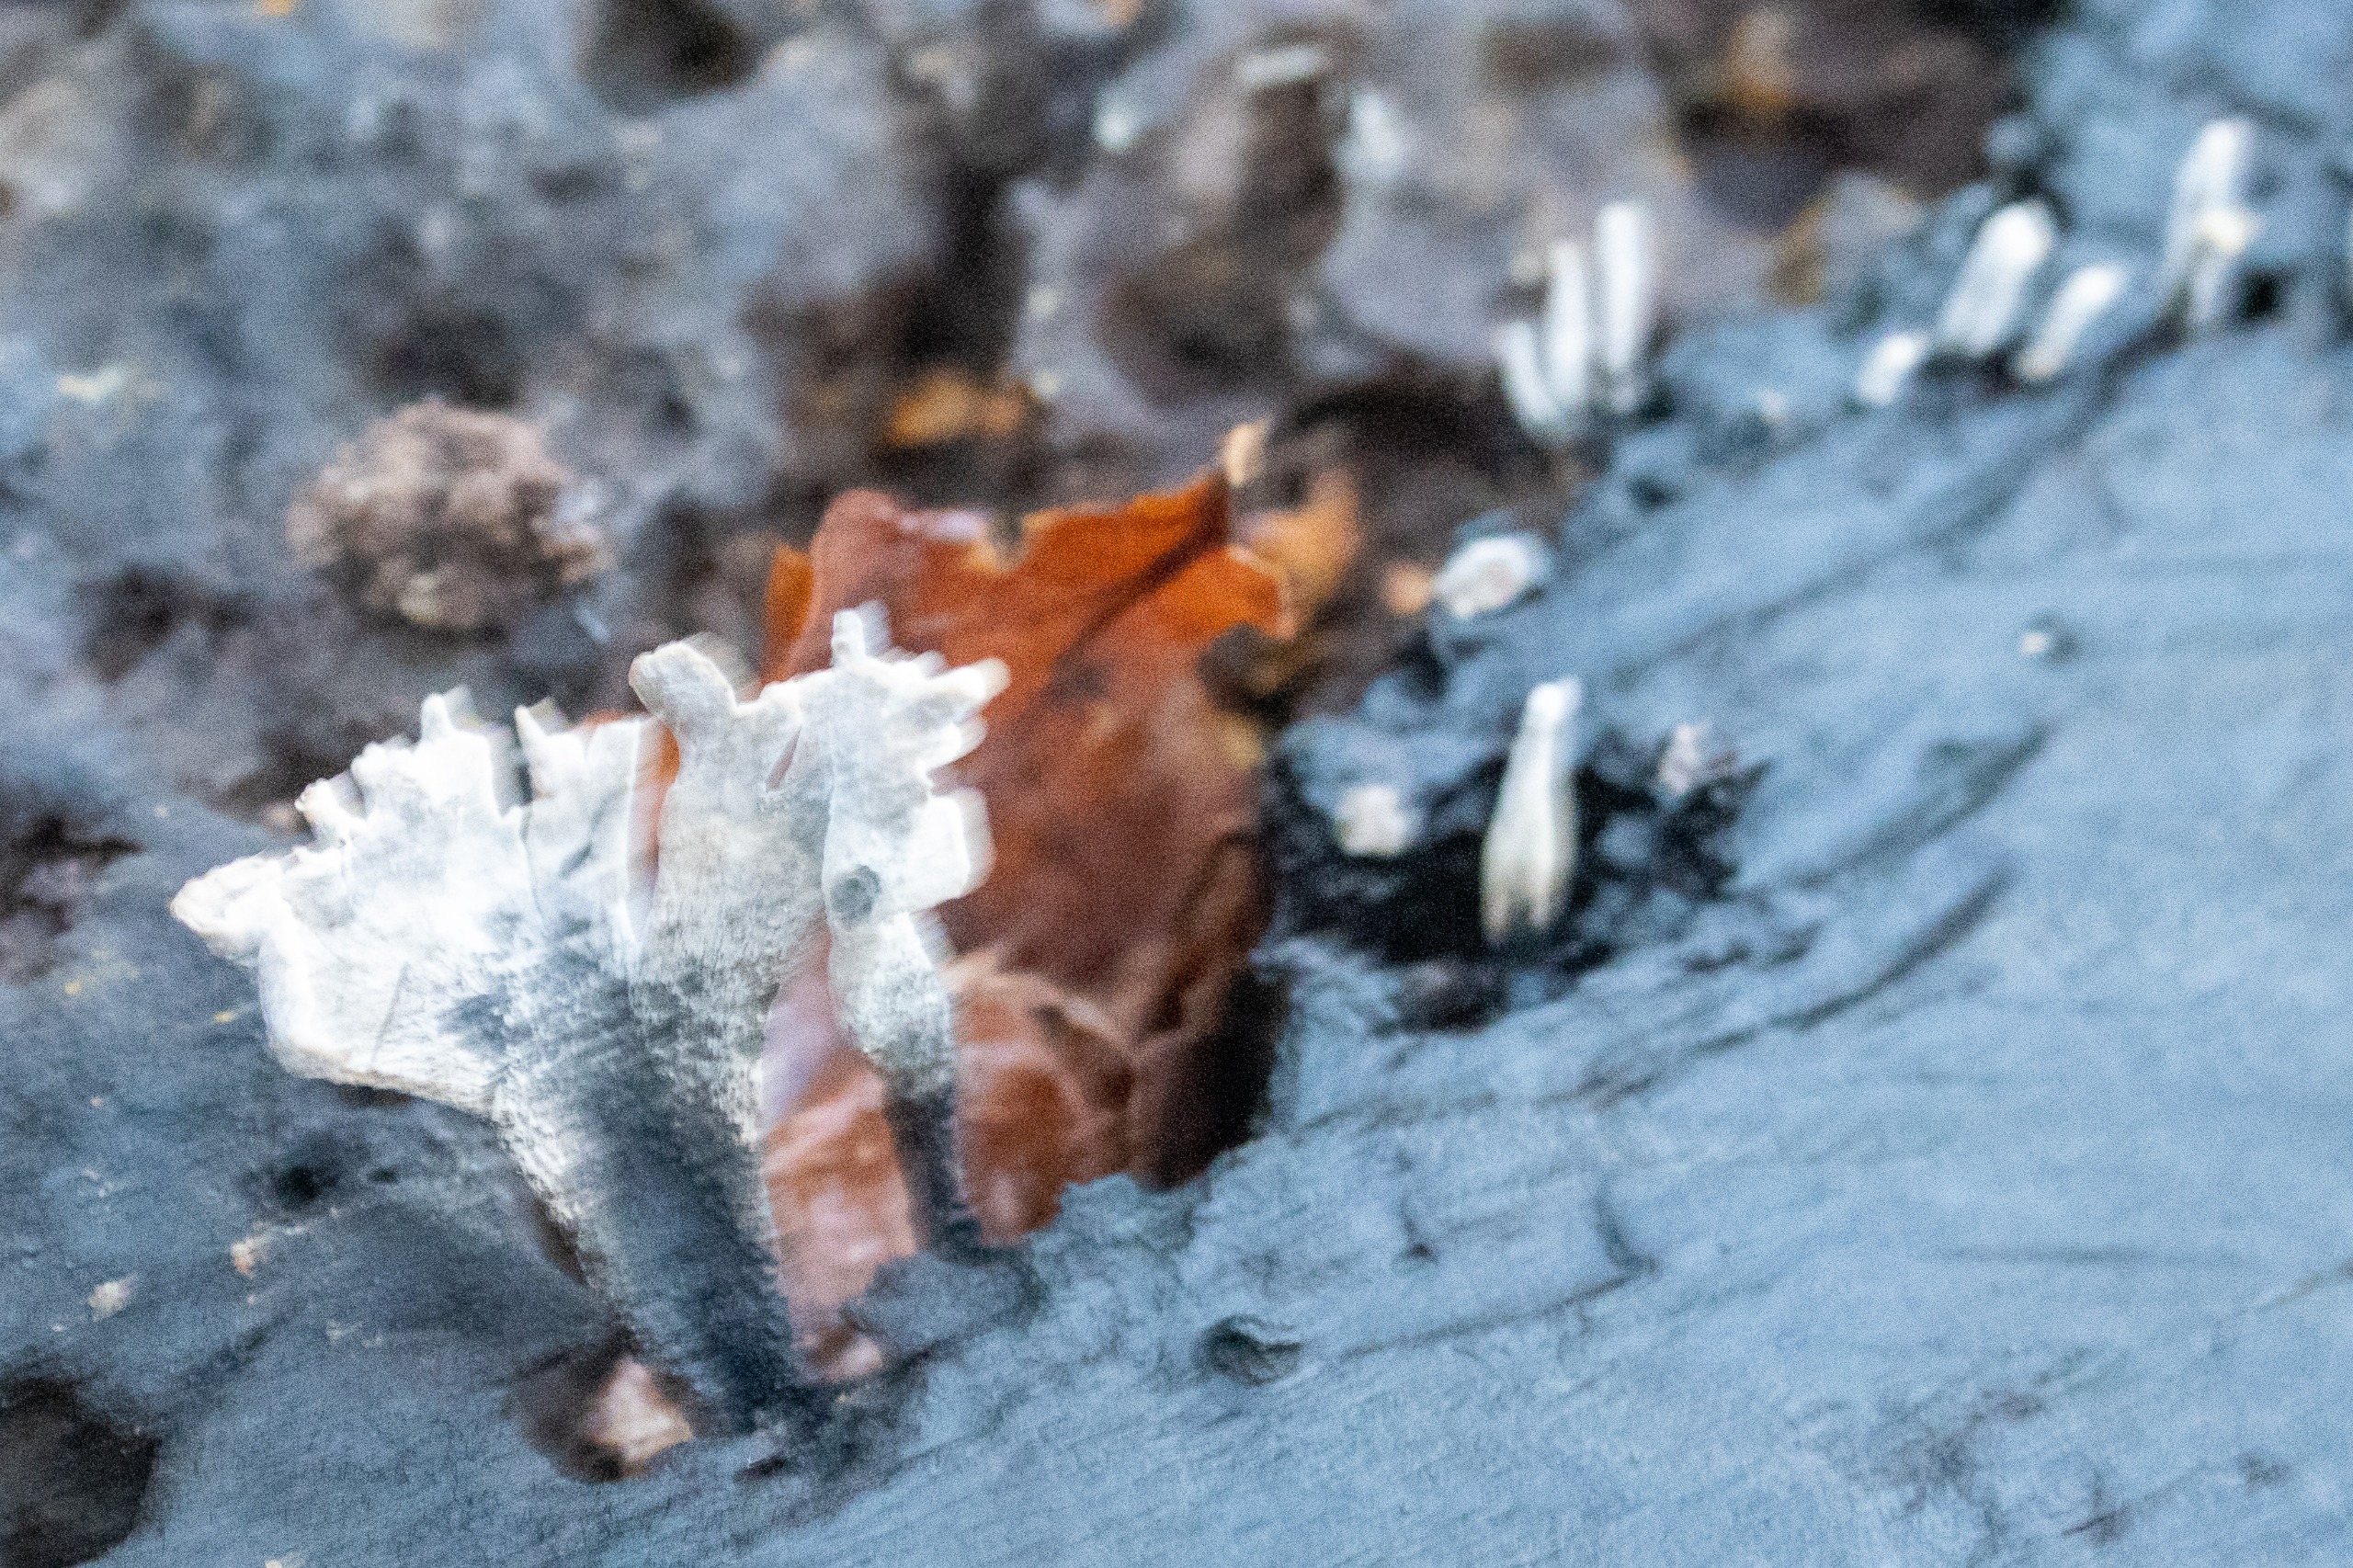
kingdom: Fungi
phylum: Ascomycota
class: Sordariomycetes
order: Xylariales
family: Xylariaceae
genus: Xylaria
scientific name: Xylaria hypoxylon
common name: Grenet stødsvamp
